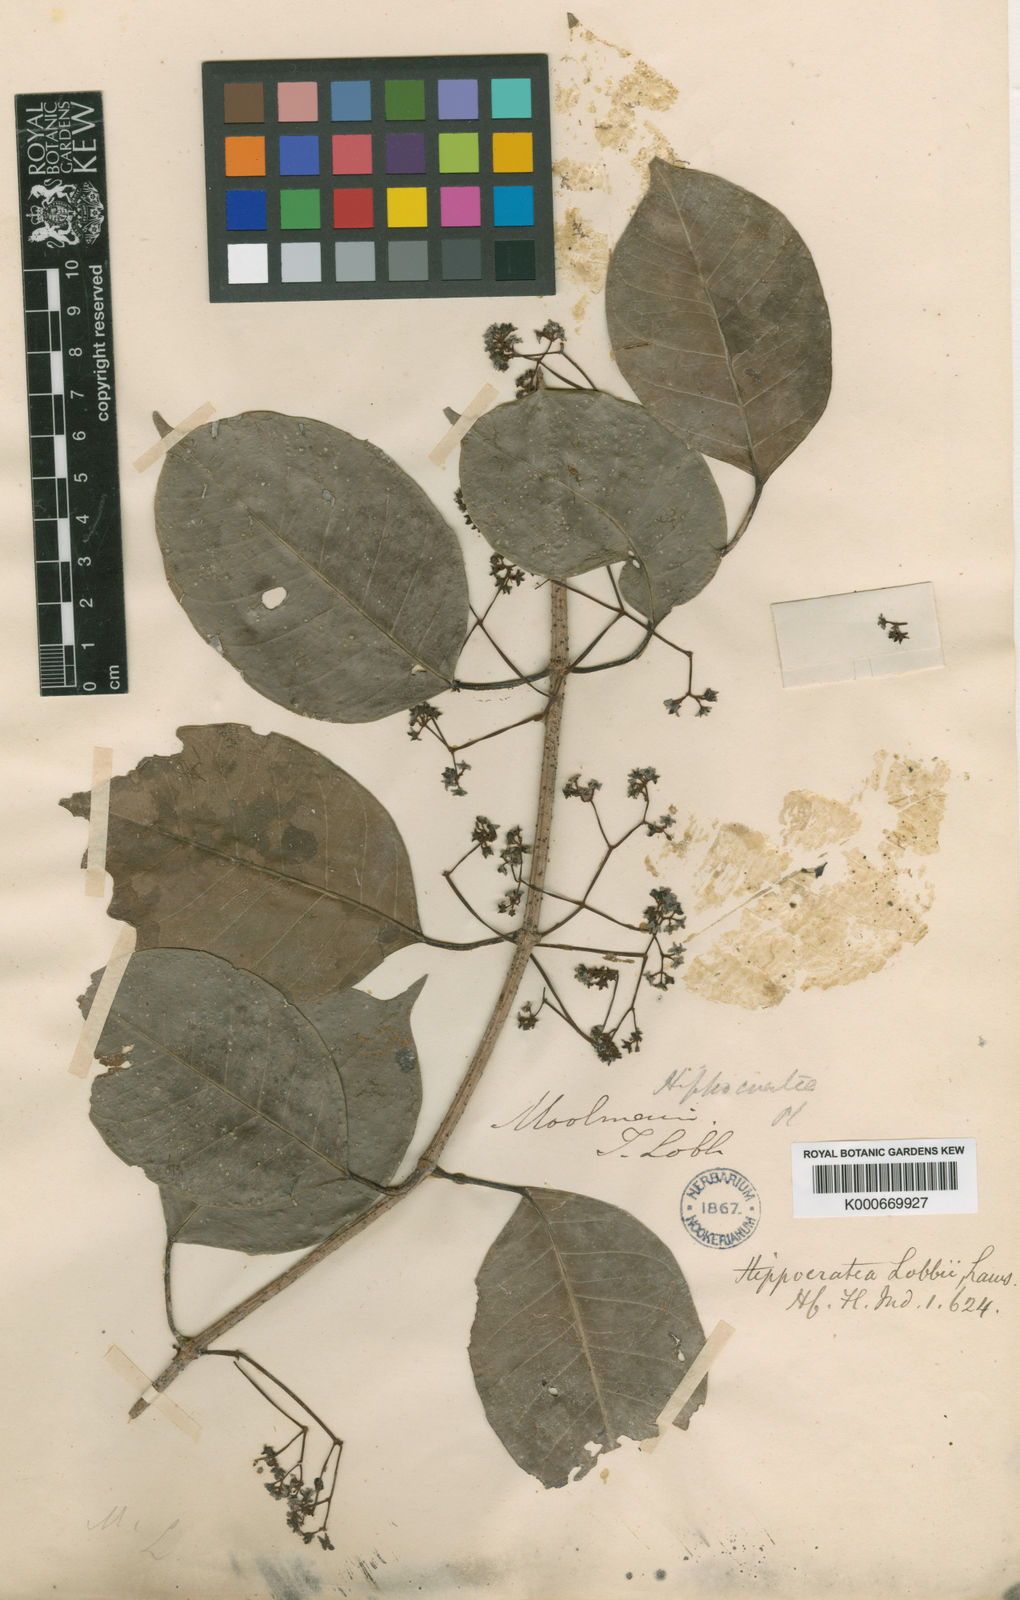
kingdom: Plantae
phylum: Tracheophyta
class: Magnoliopsida
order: Celastrales
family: Celastraceae
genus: Reissantia
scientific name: Reissantia indica
